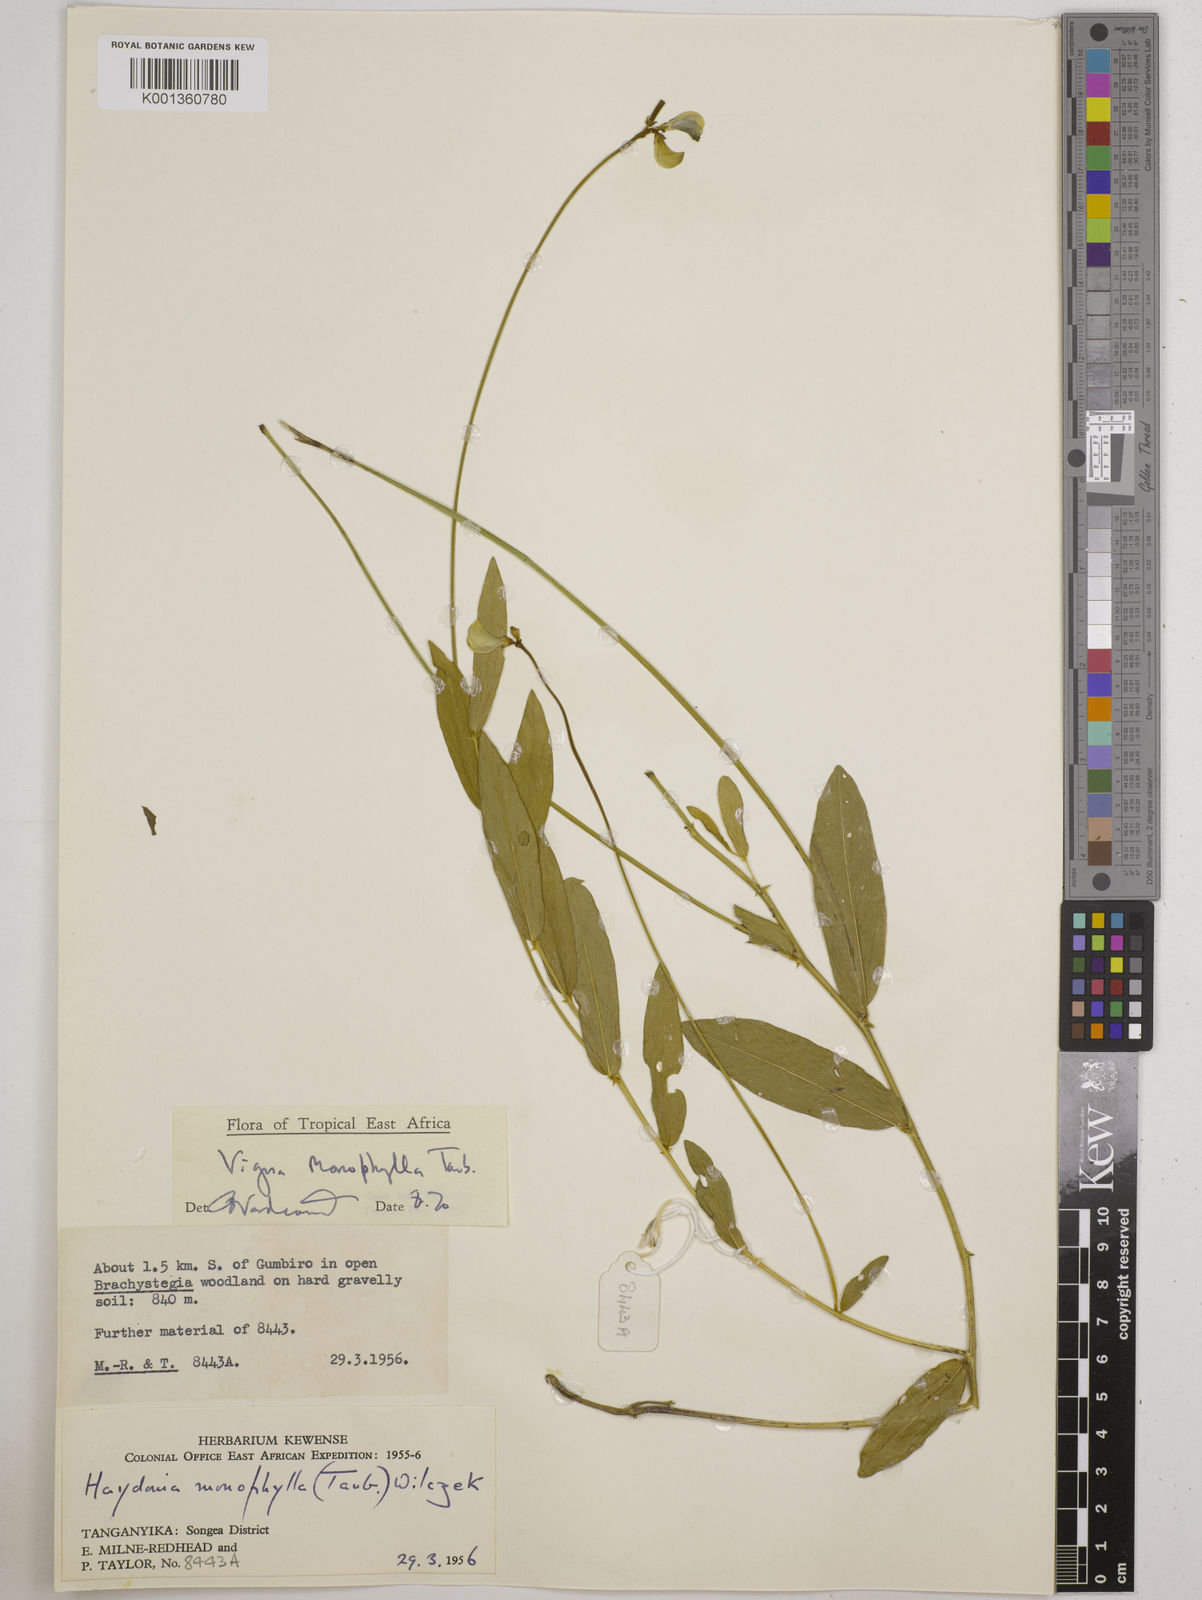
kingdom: Plantae
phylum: Tracheophyta
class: Magnoliopsida
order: Fabales
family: Fabaceae
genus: Vigna
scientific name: Vigna monophylla
